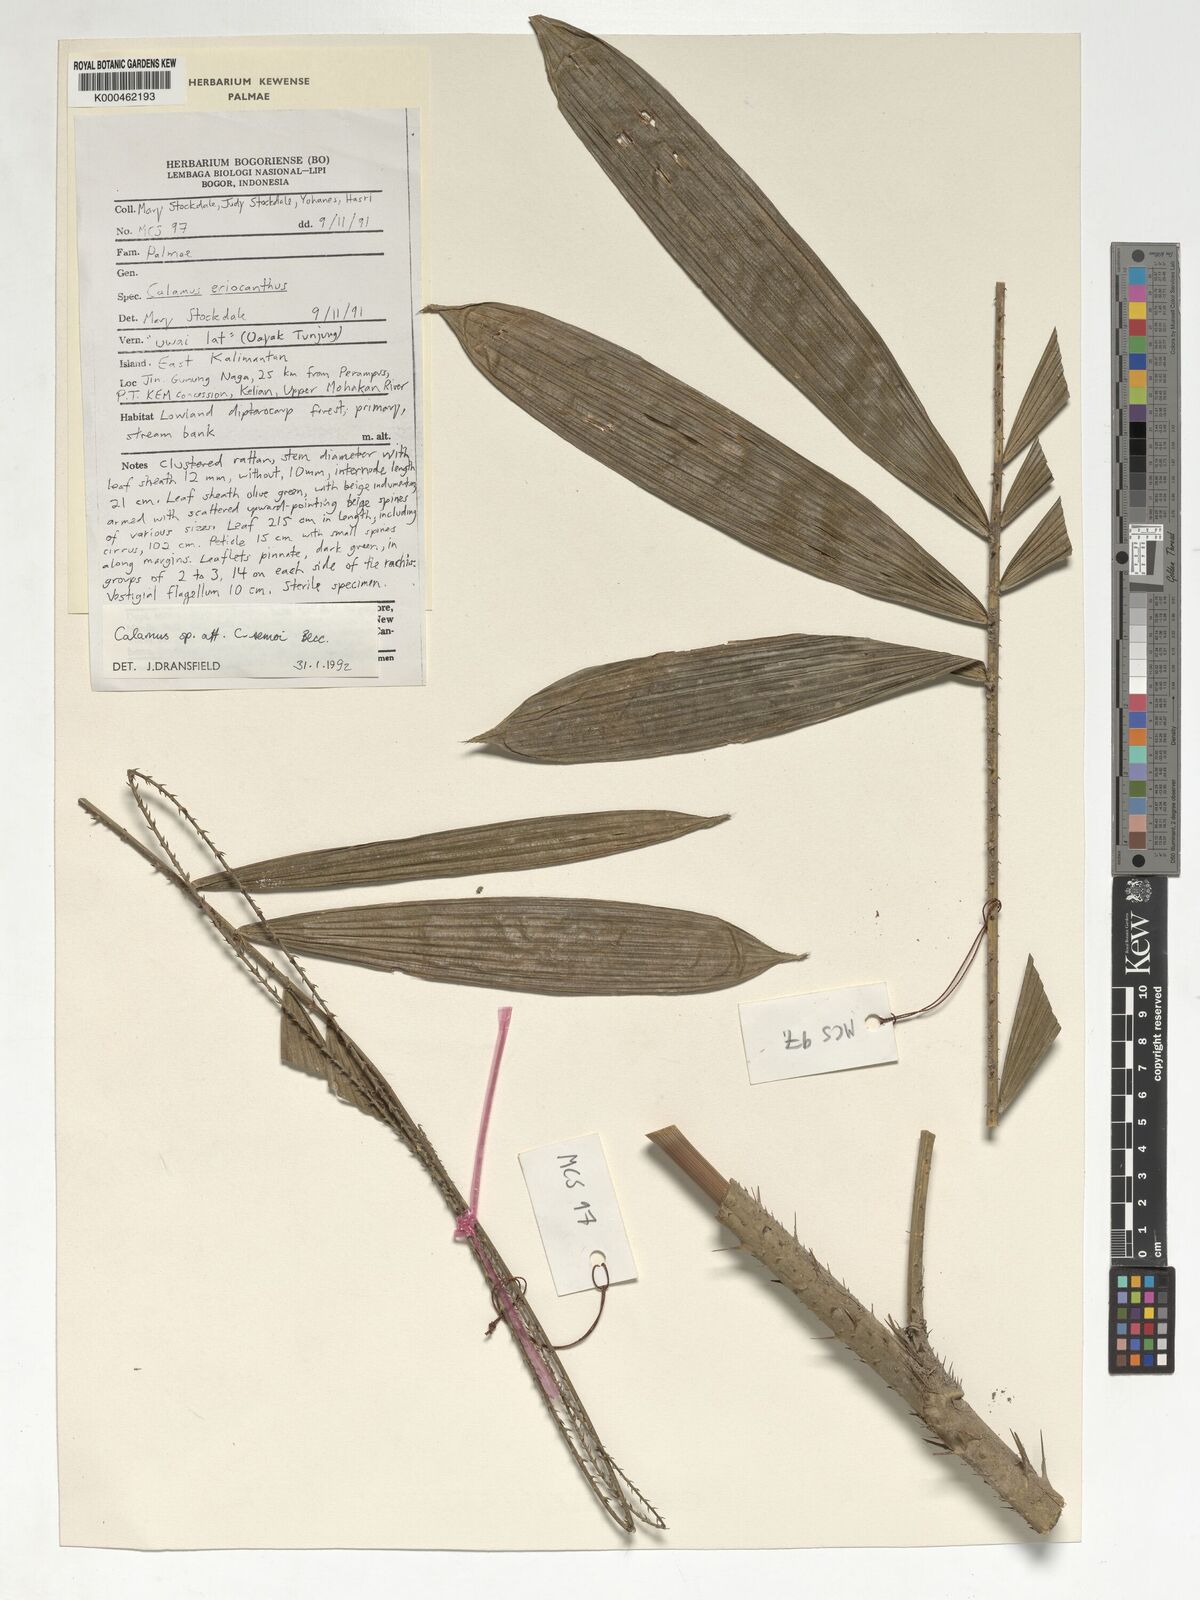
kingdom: Plantae
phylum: Tracheophyta
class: Liliopsida
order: Arecales
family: Arecaceae
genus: Calamus
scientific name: Calamus erioacanthus
